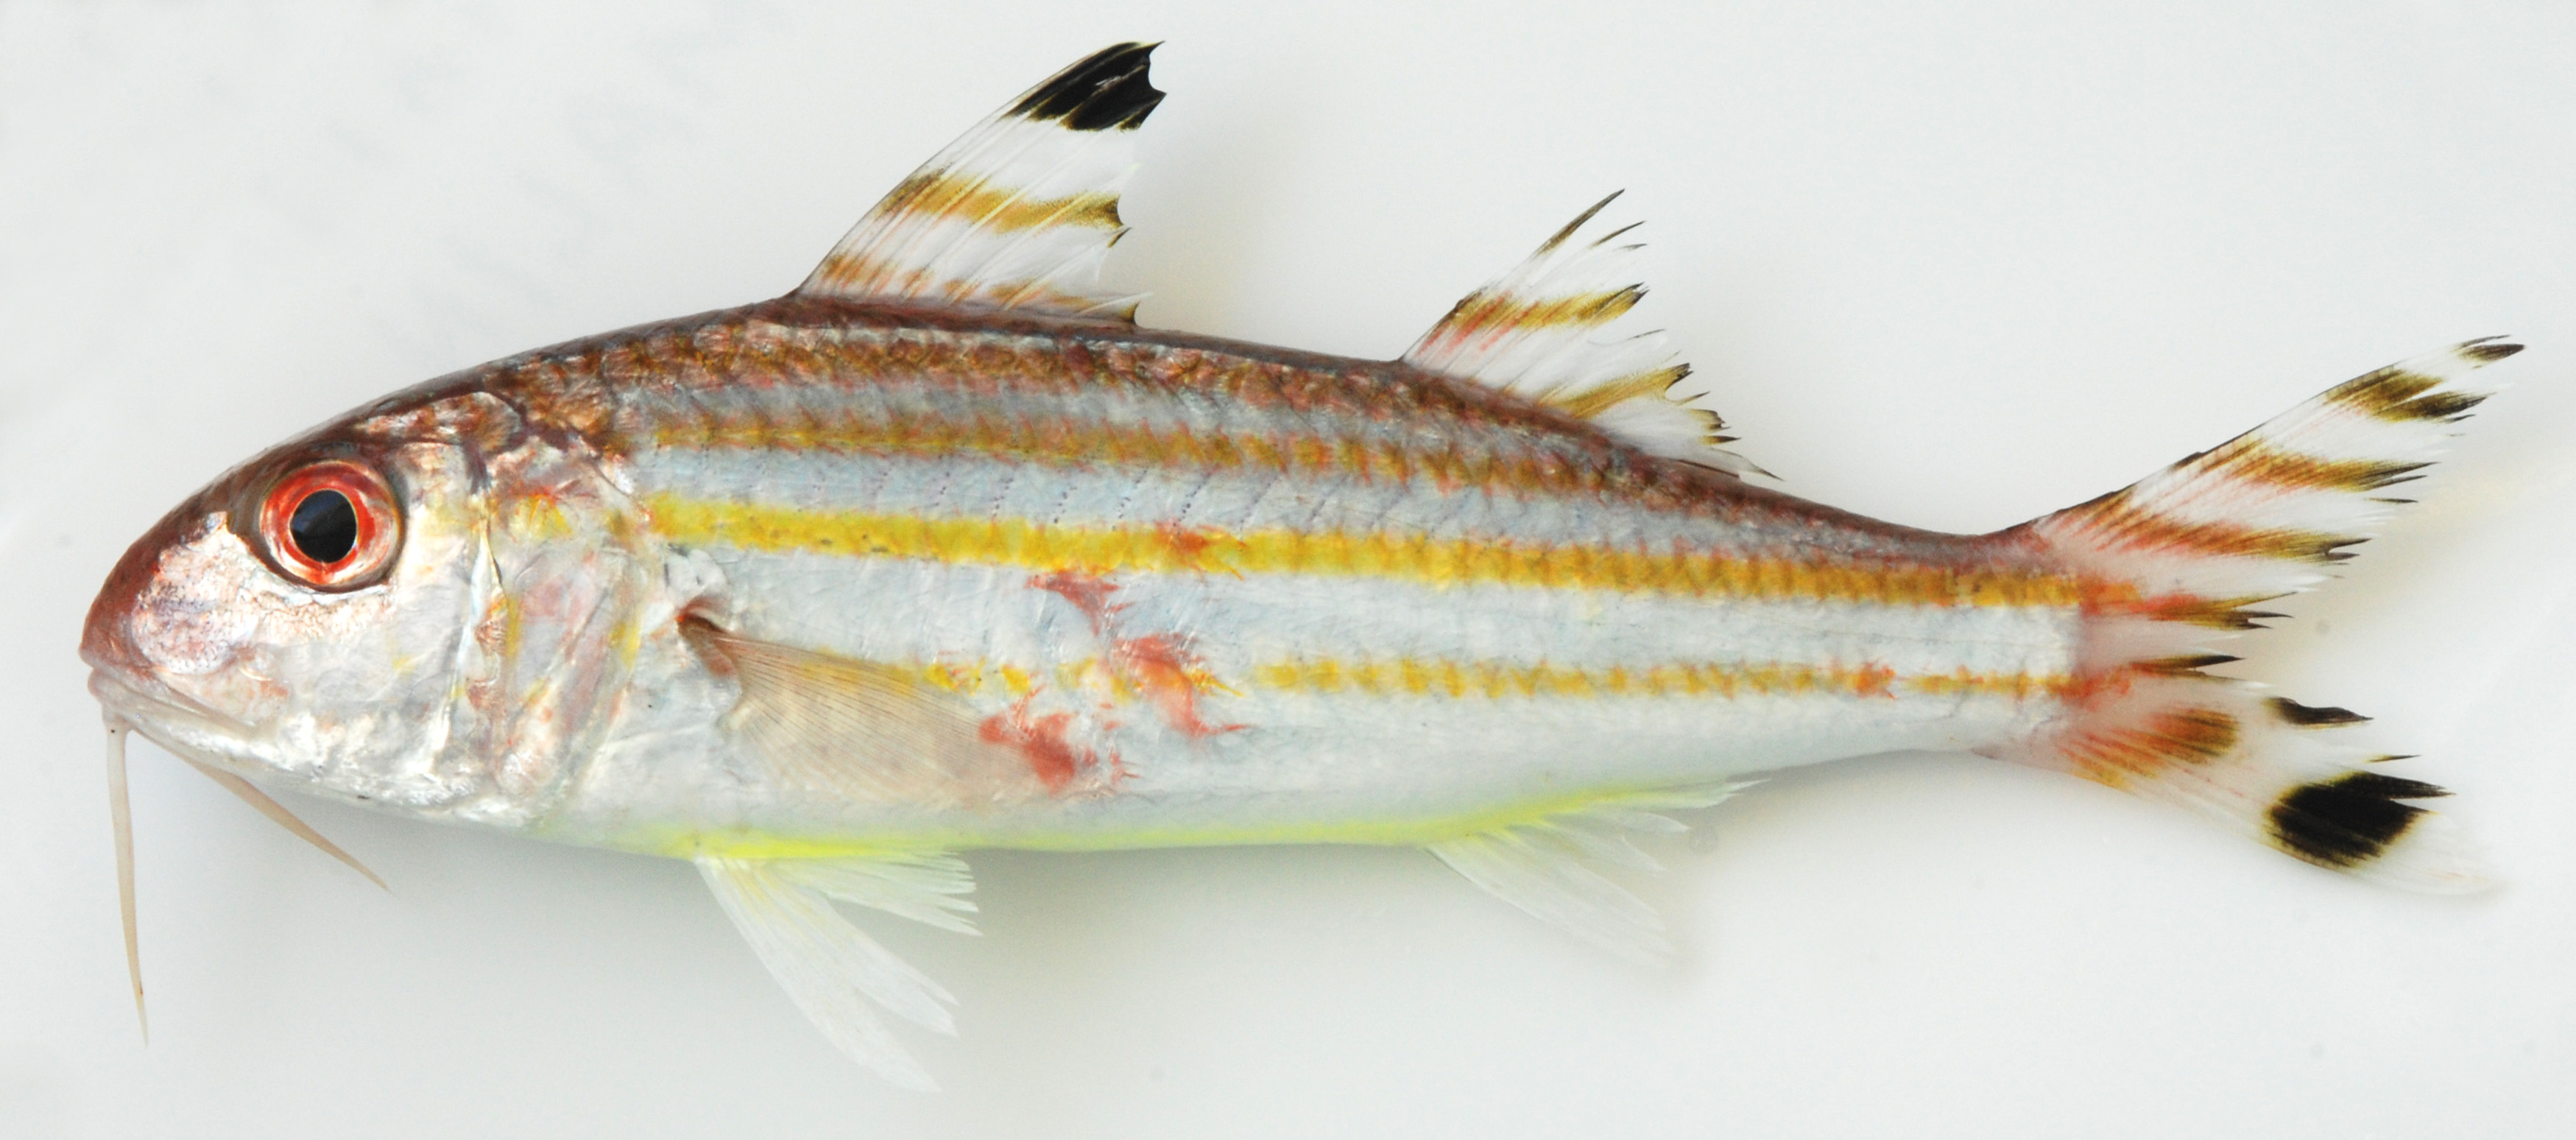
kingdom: Animalia
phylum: Chordata
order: Perciformes
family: Mullidae
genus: Upeneus
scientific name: Upeneus vittatus
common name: Striped goatfish
